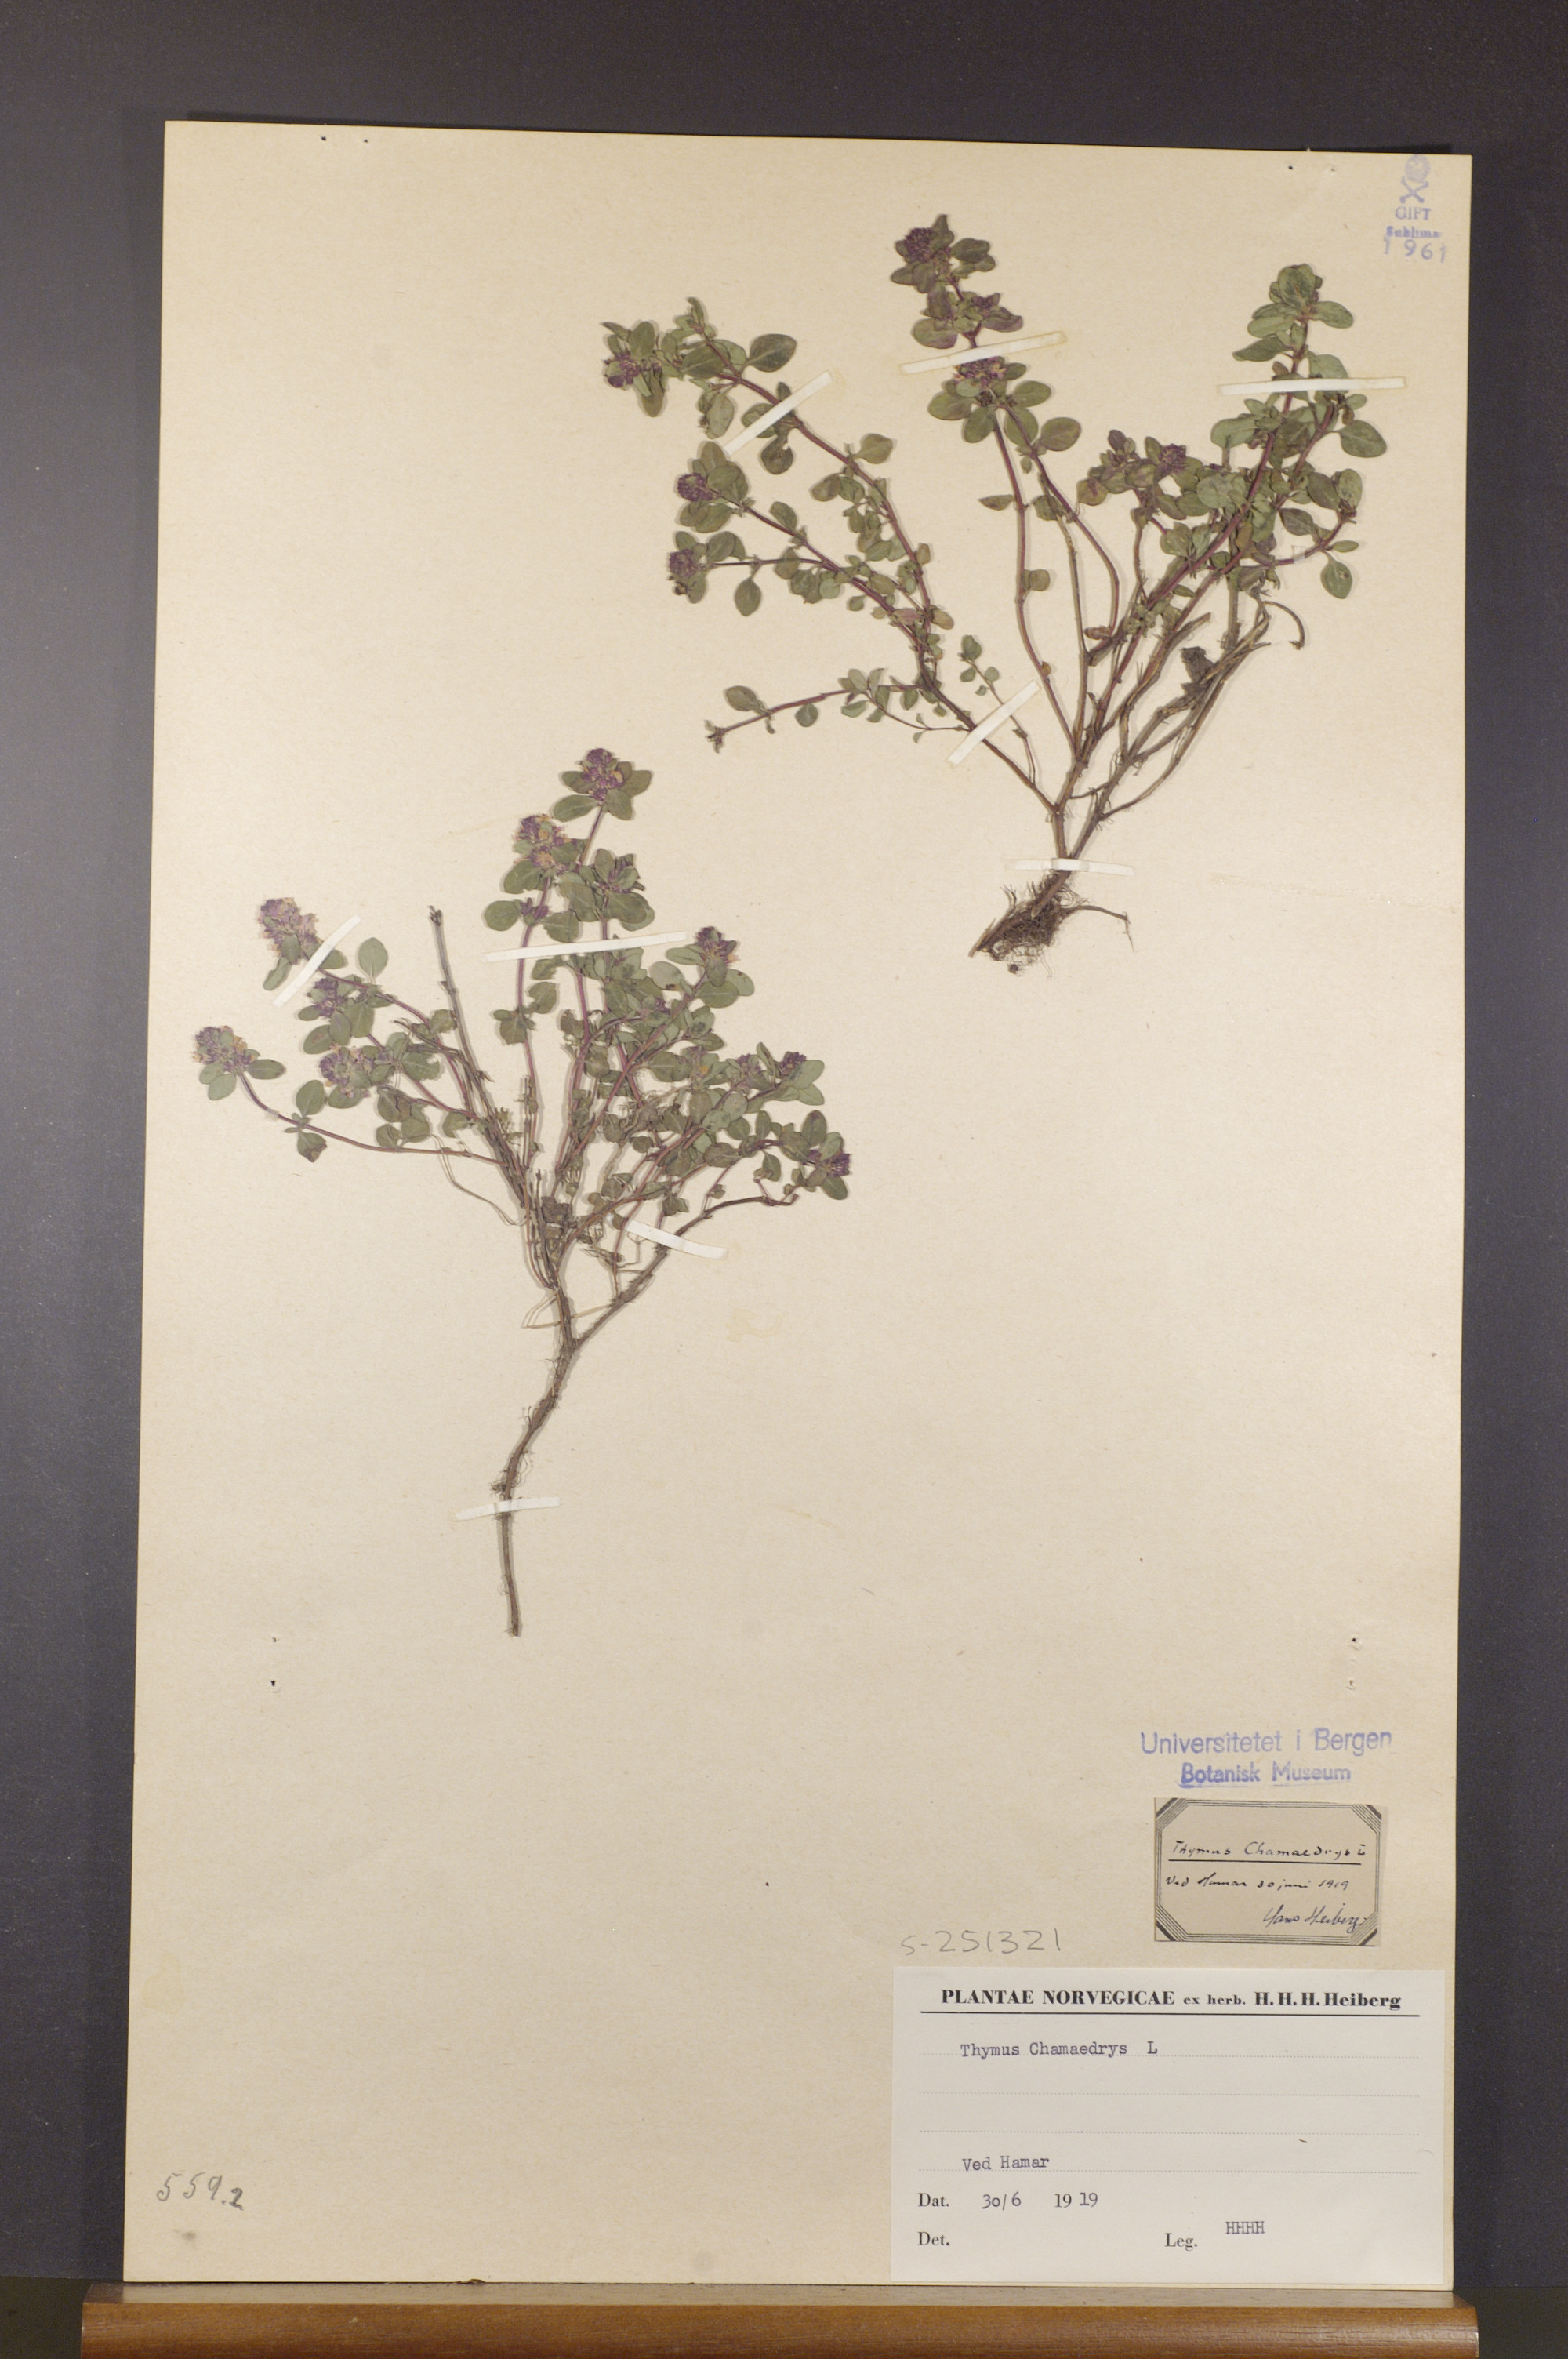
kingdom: Plantae
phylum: Tracheophyta
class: Magnoliopsida
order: Lamiales
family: Lamiaceae
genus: Thymus
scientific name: Thymus pulegioides
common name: Large thyme
